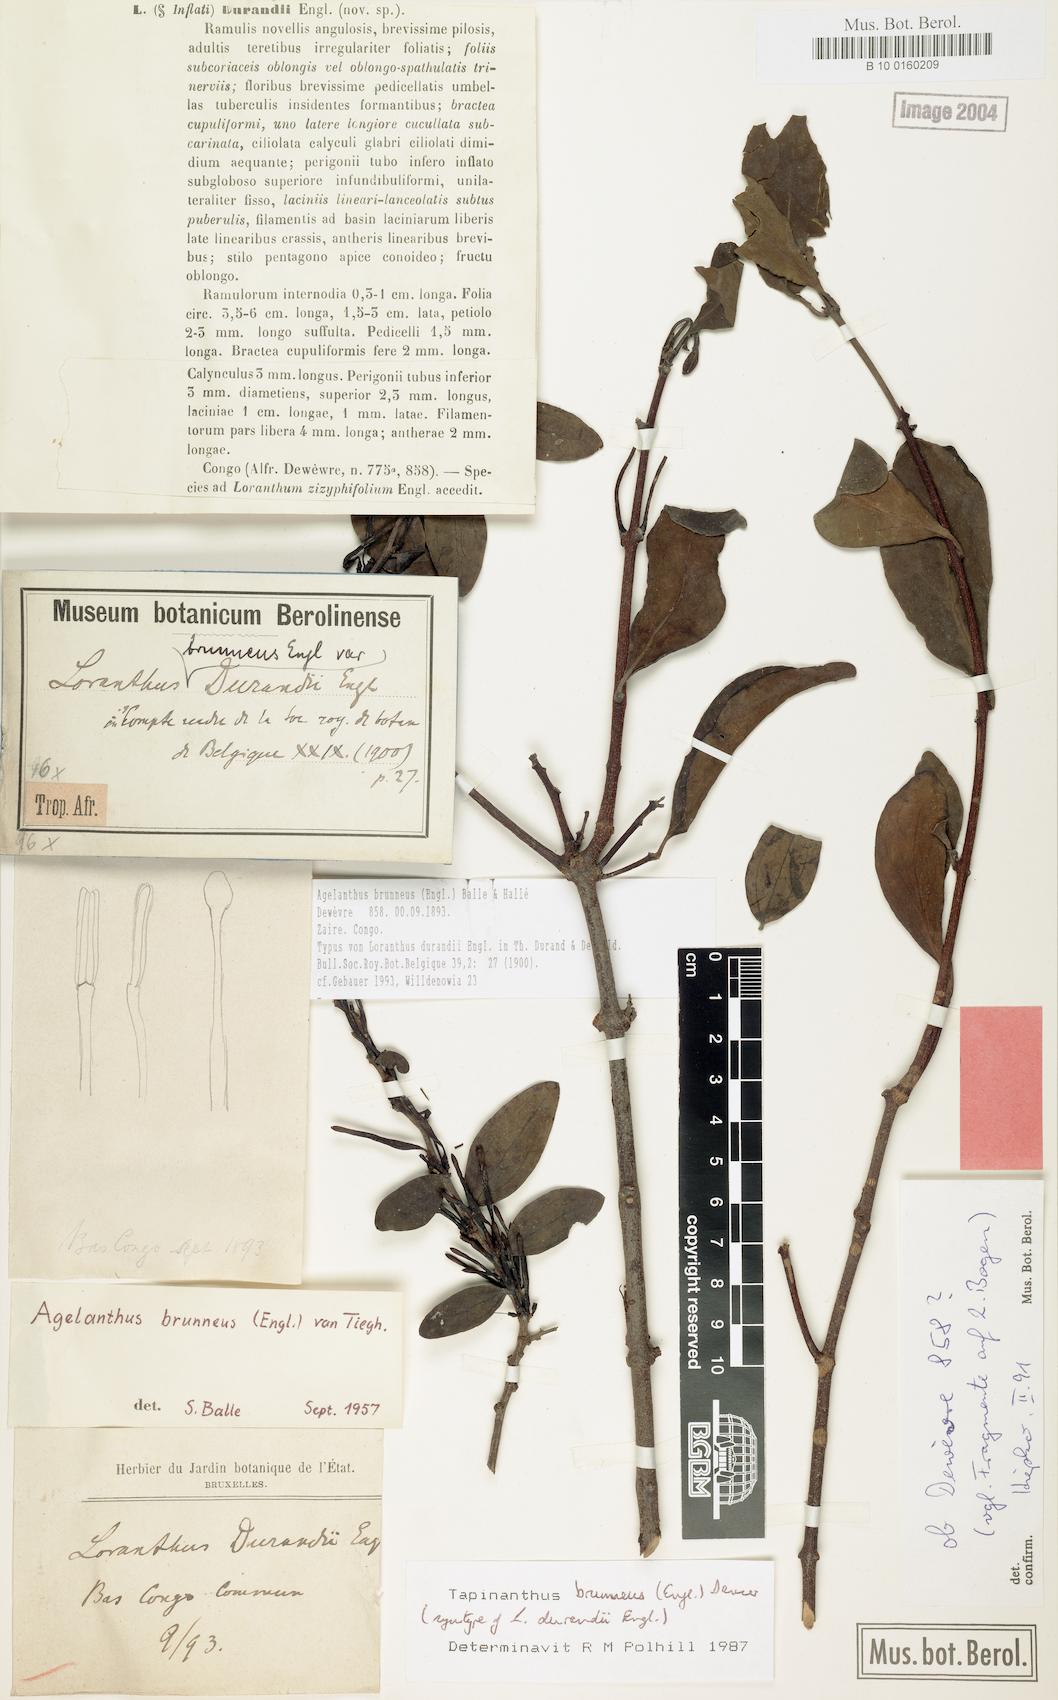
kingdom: Plantae
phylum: Tracheophyta
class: Magnoliopsida
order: Santalales
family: Loranthaceae
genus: Agelanthus
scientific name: Agelanthus brunneus
